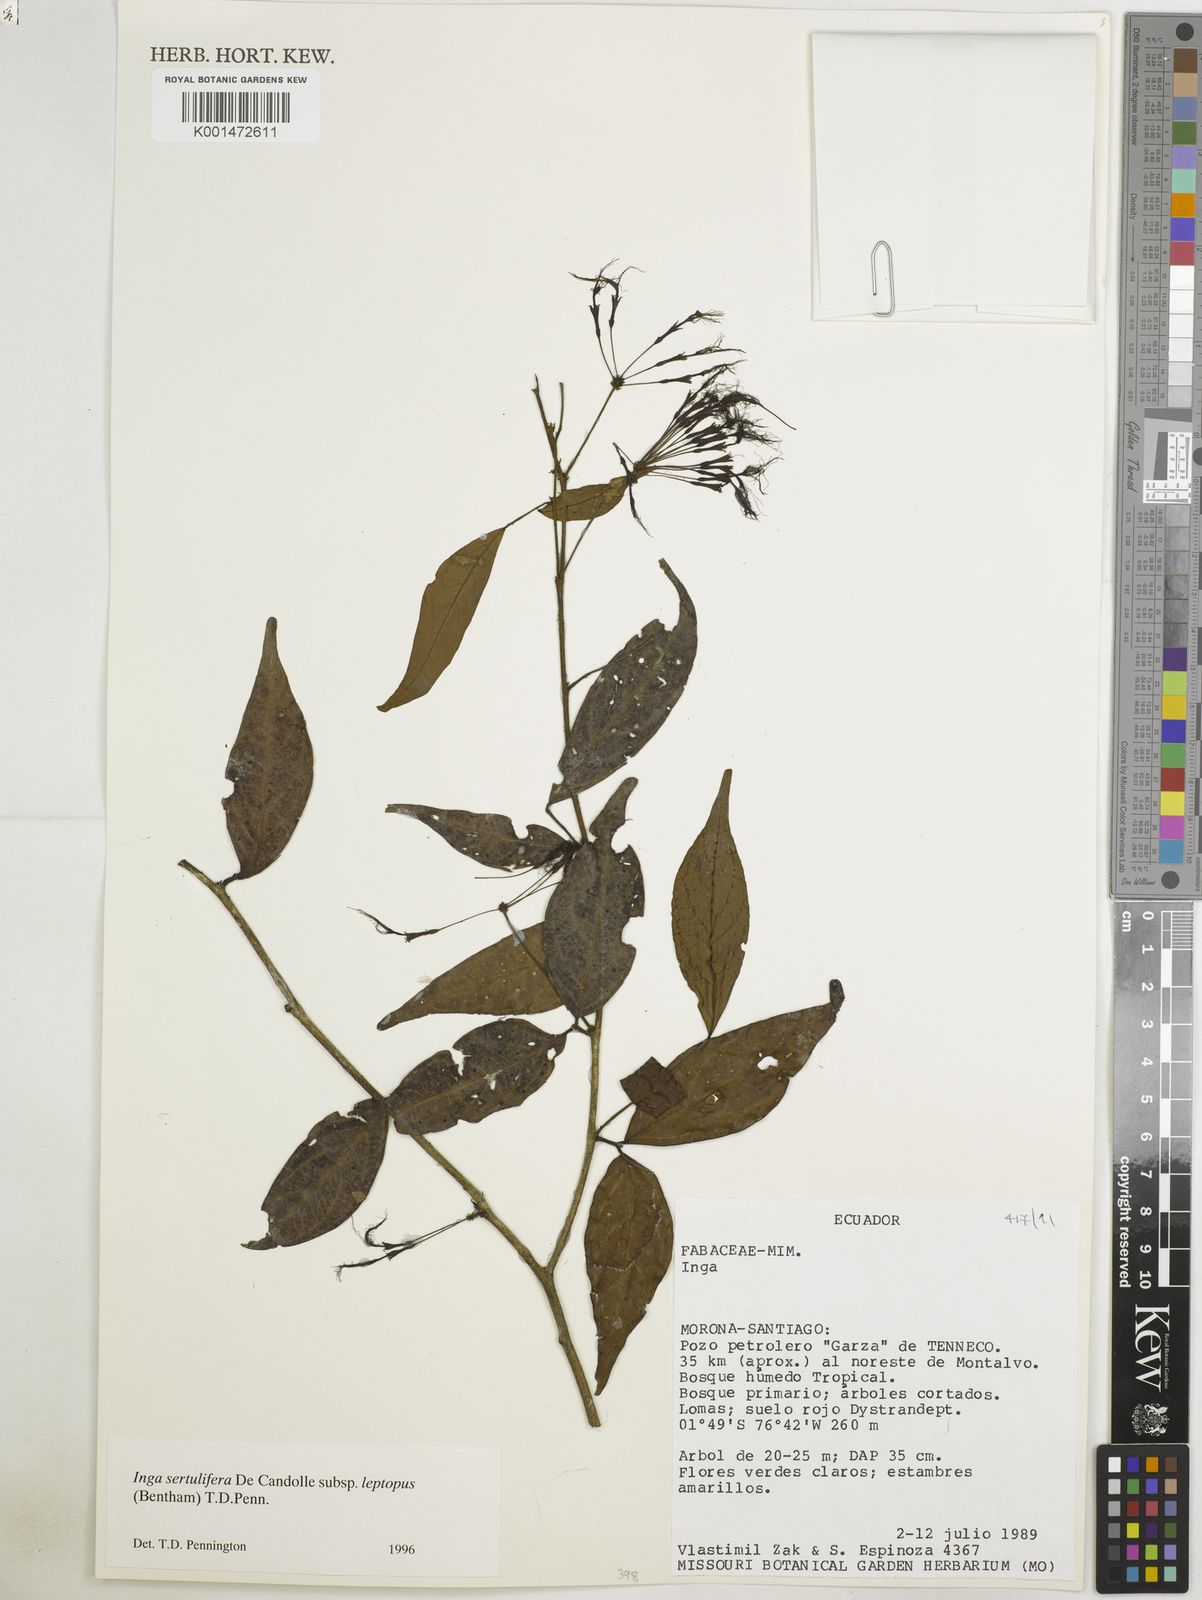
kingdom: Plantae
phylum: Tracheophyta
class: Magnoliopsida
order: Fabales
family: Fabaceae
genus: Inga
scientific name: Inga sertulifera
